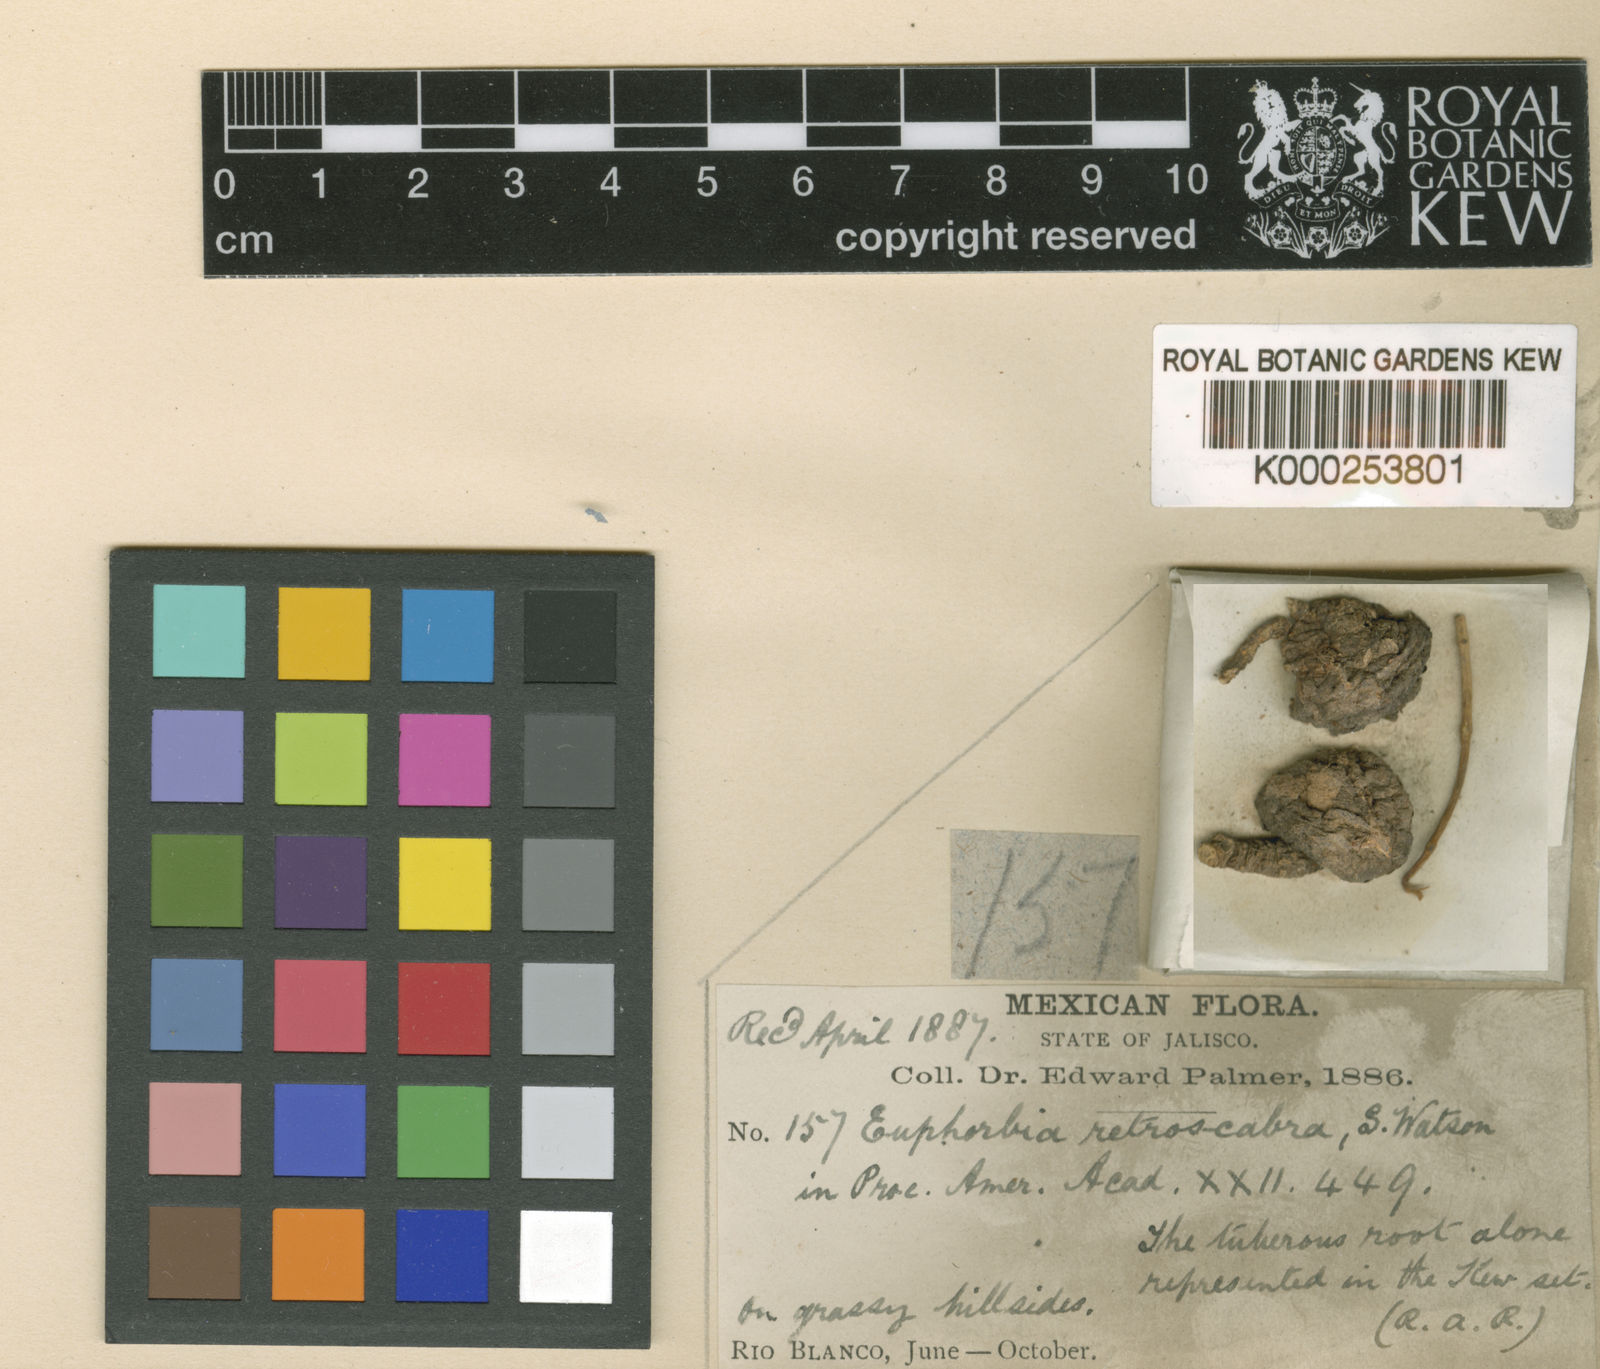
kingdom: Plantae
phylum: Tracheophyta
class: Magnoliopsida
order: Malpighiales
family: Euphorbiaceae
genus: Euphorbia
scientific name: Euphorbia macropus
